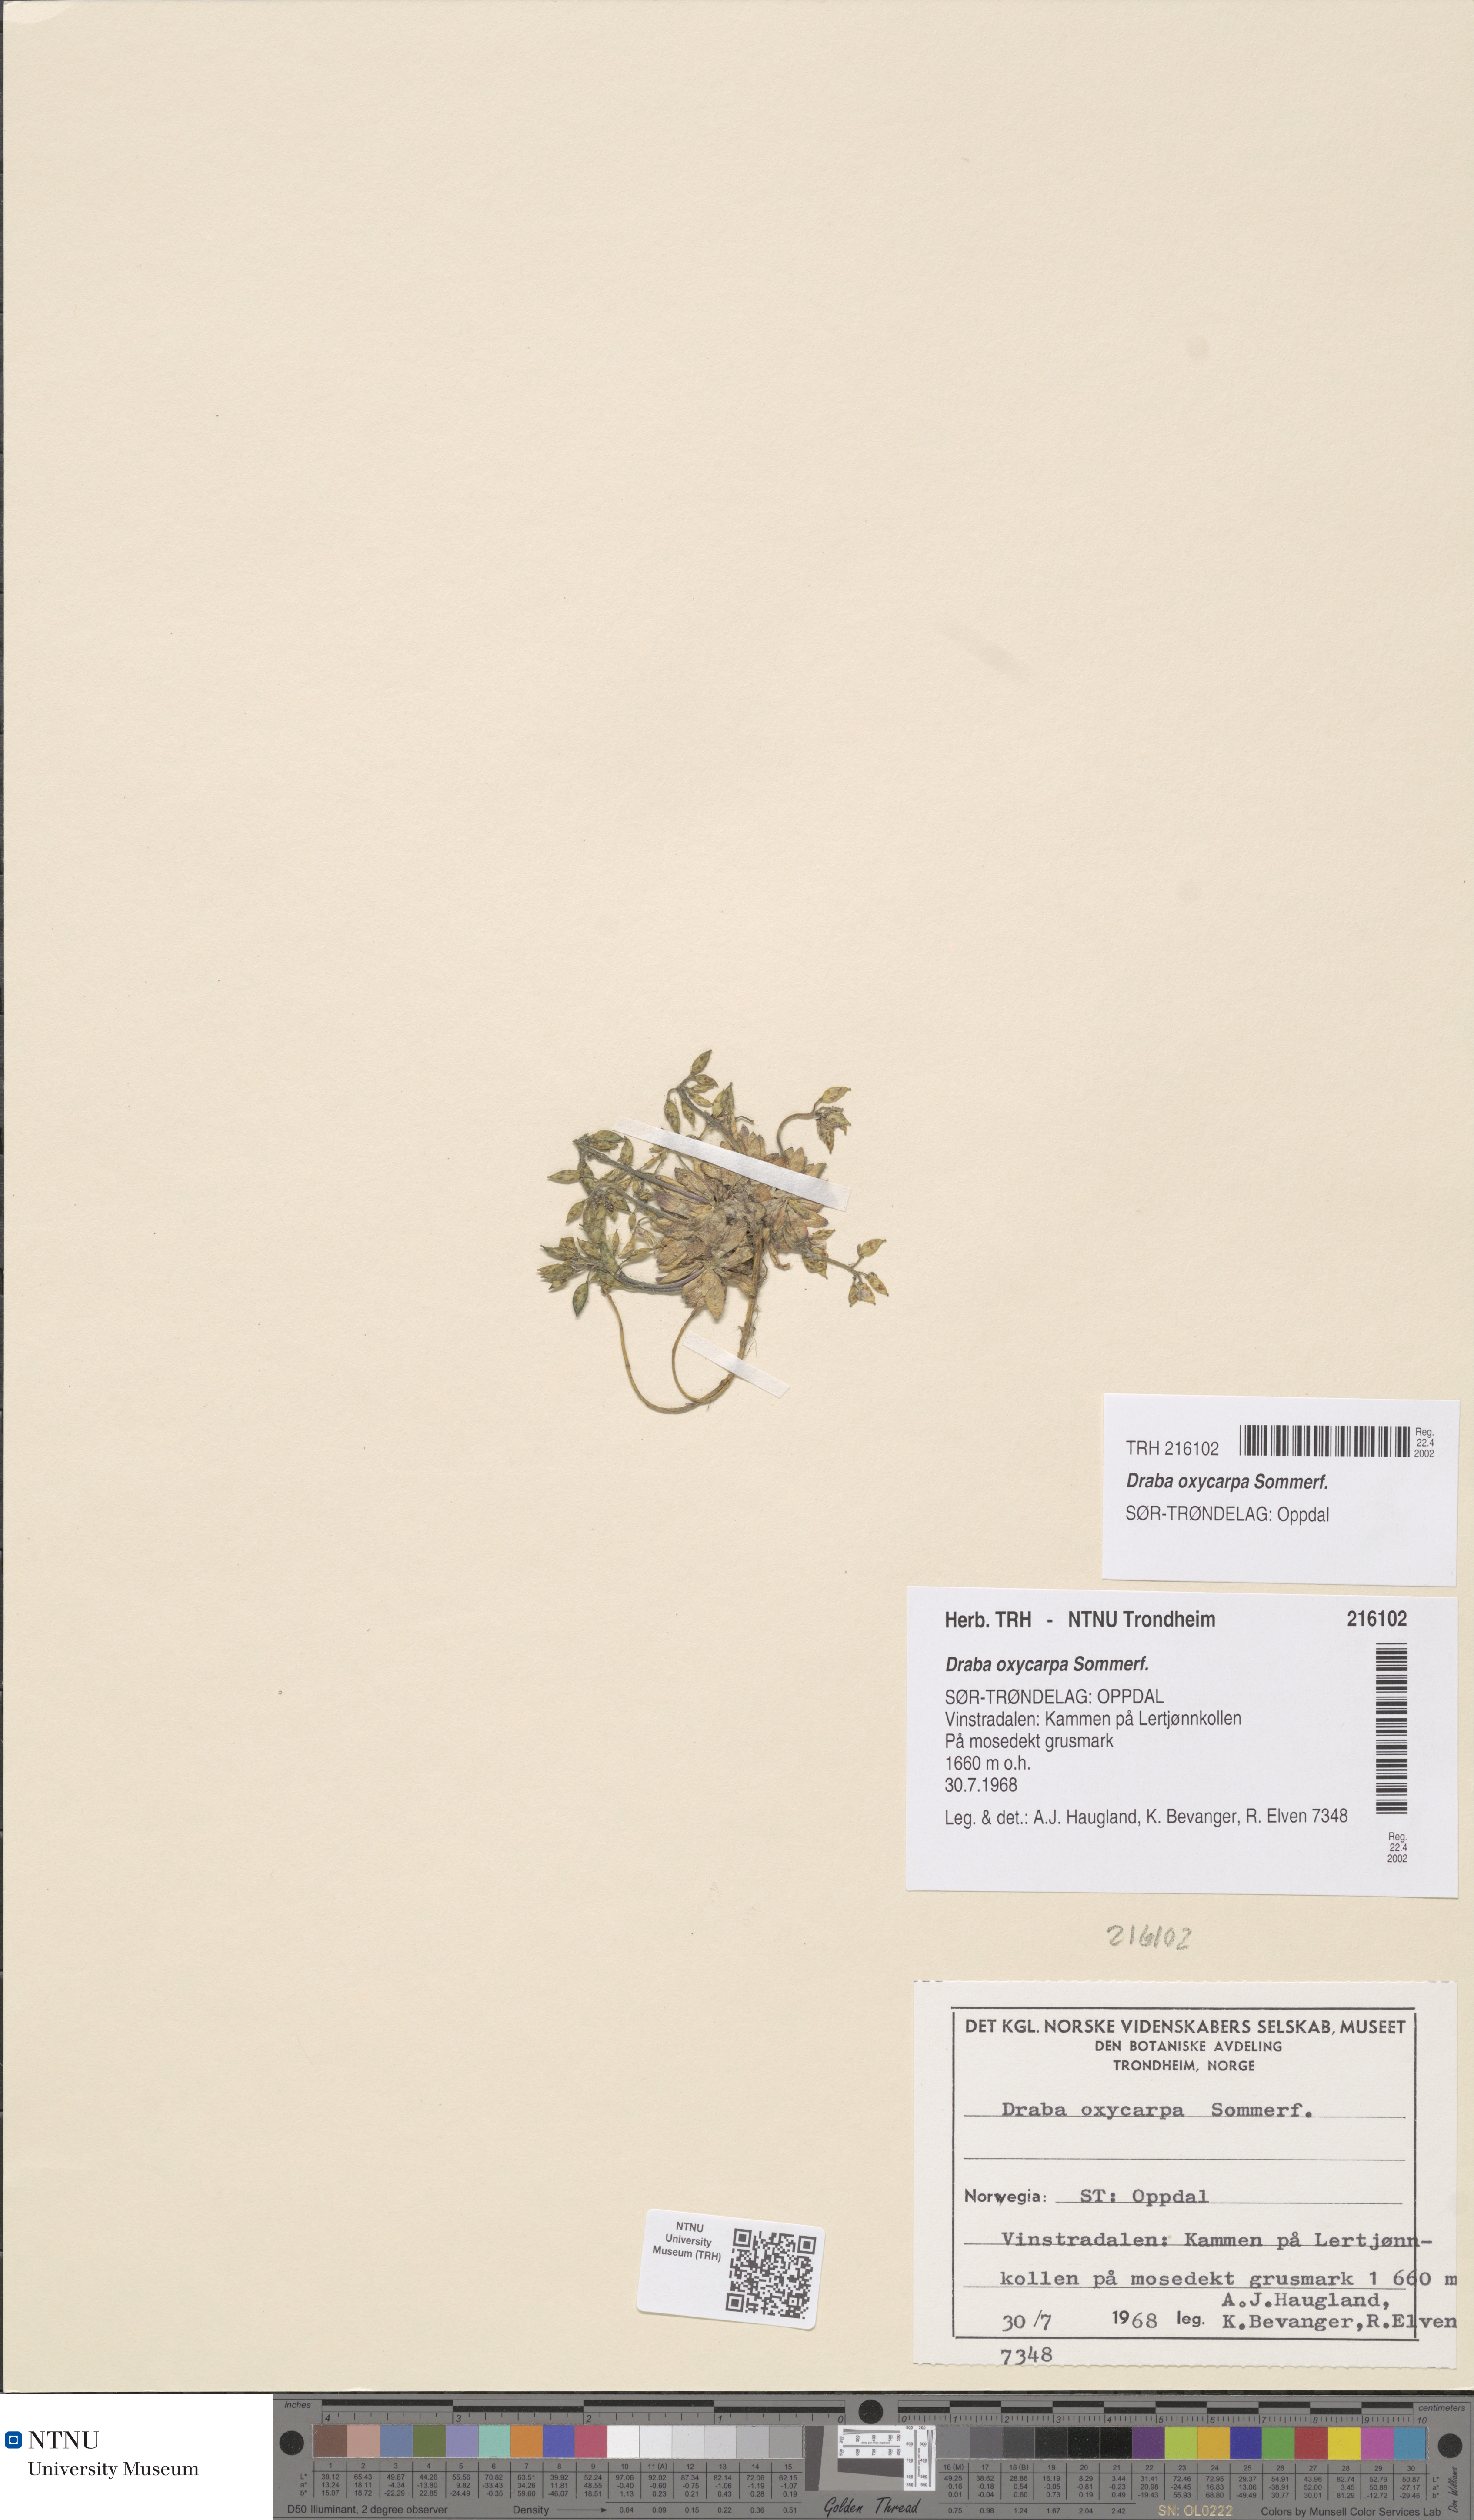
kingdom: Plantae
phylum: Tracheophyta
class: Magnoliopsida
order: Brassicales
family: Brassicaceae
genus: Draba
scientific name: Draba oxycarpa
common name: Sharp-fruited whitlow-grass
